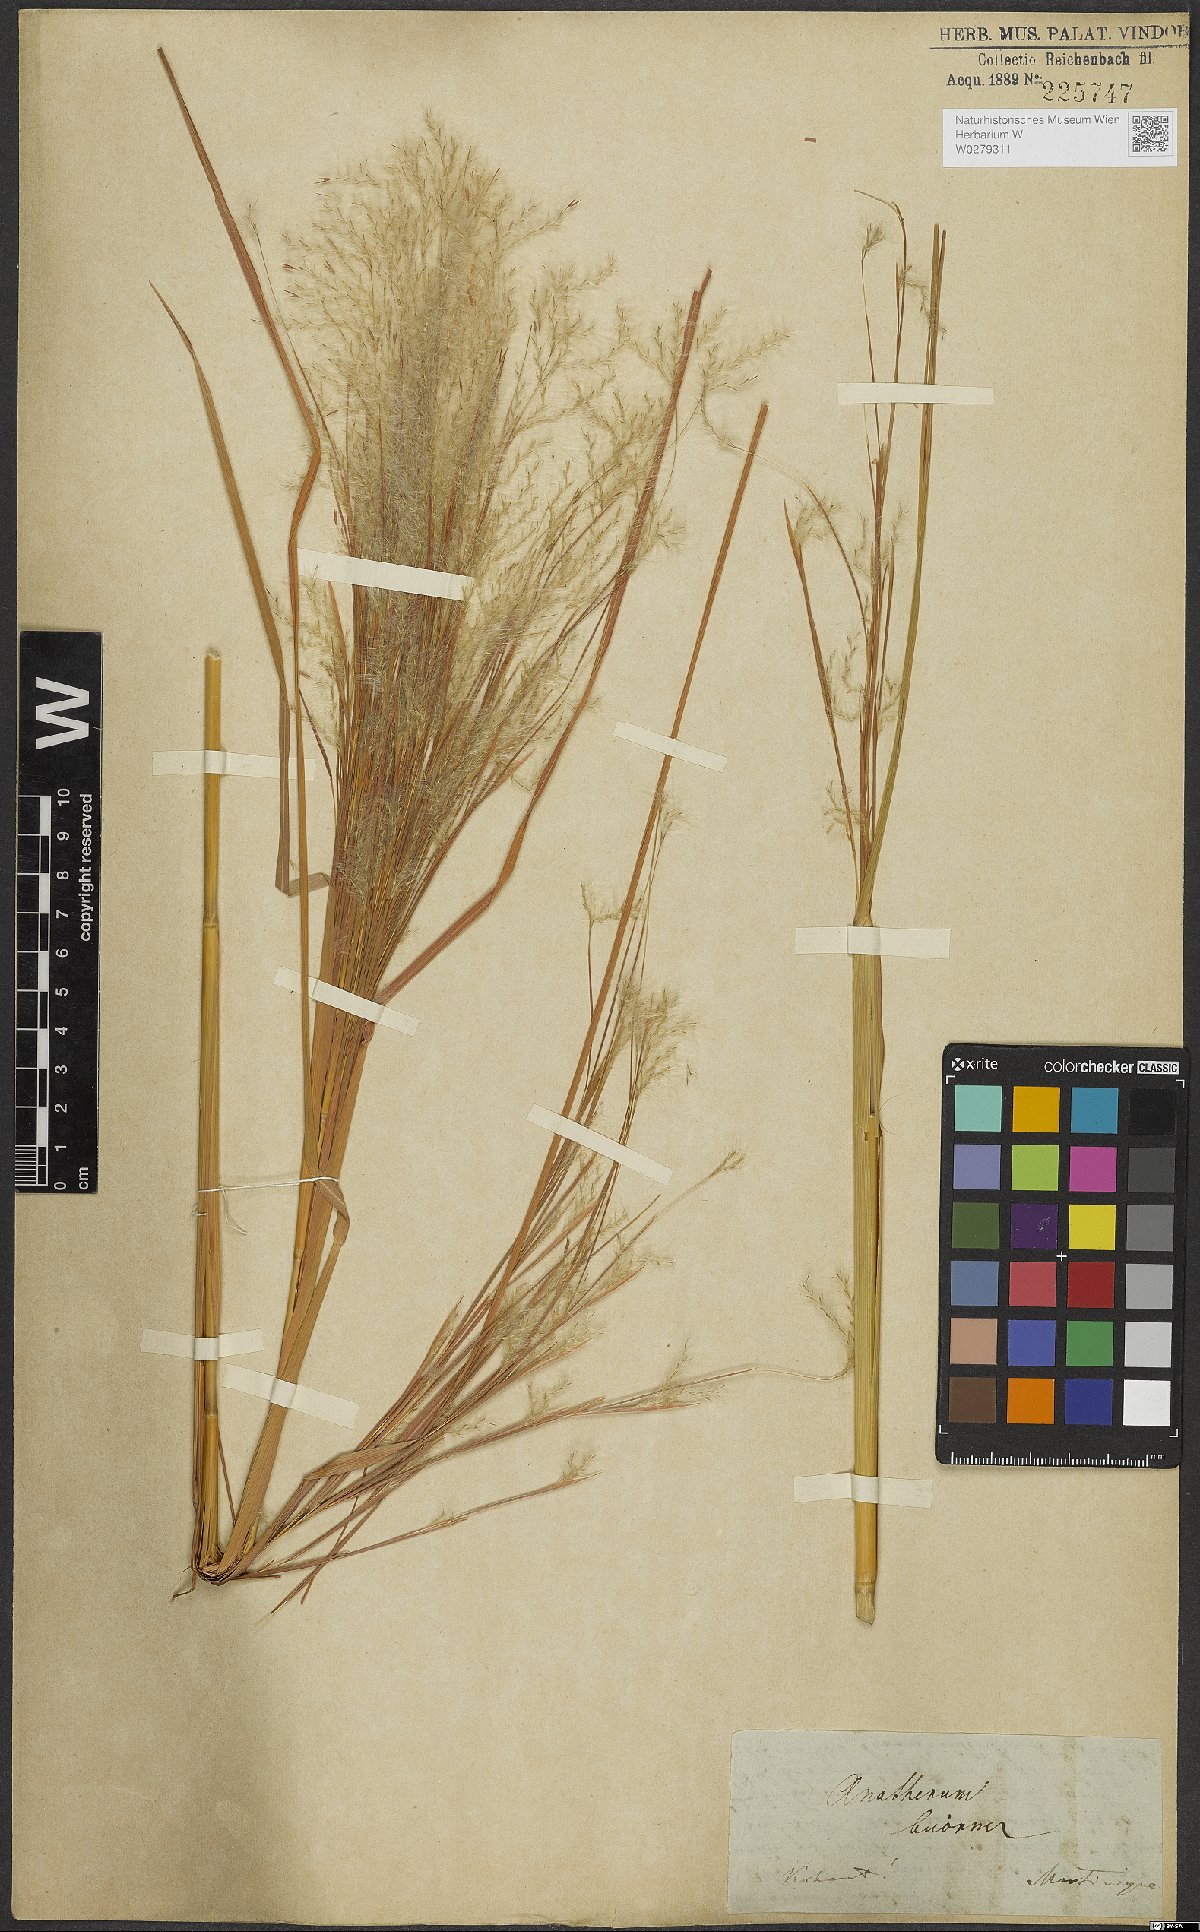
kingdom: Plantae
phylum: Tracheophyta
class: Liliopsida
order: Poales
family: Poaceae
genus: Andropogon
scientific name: Andropogon bicornis
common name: West indian foxtail grass
